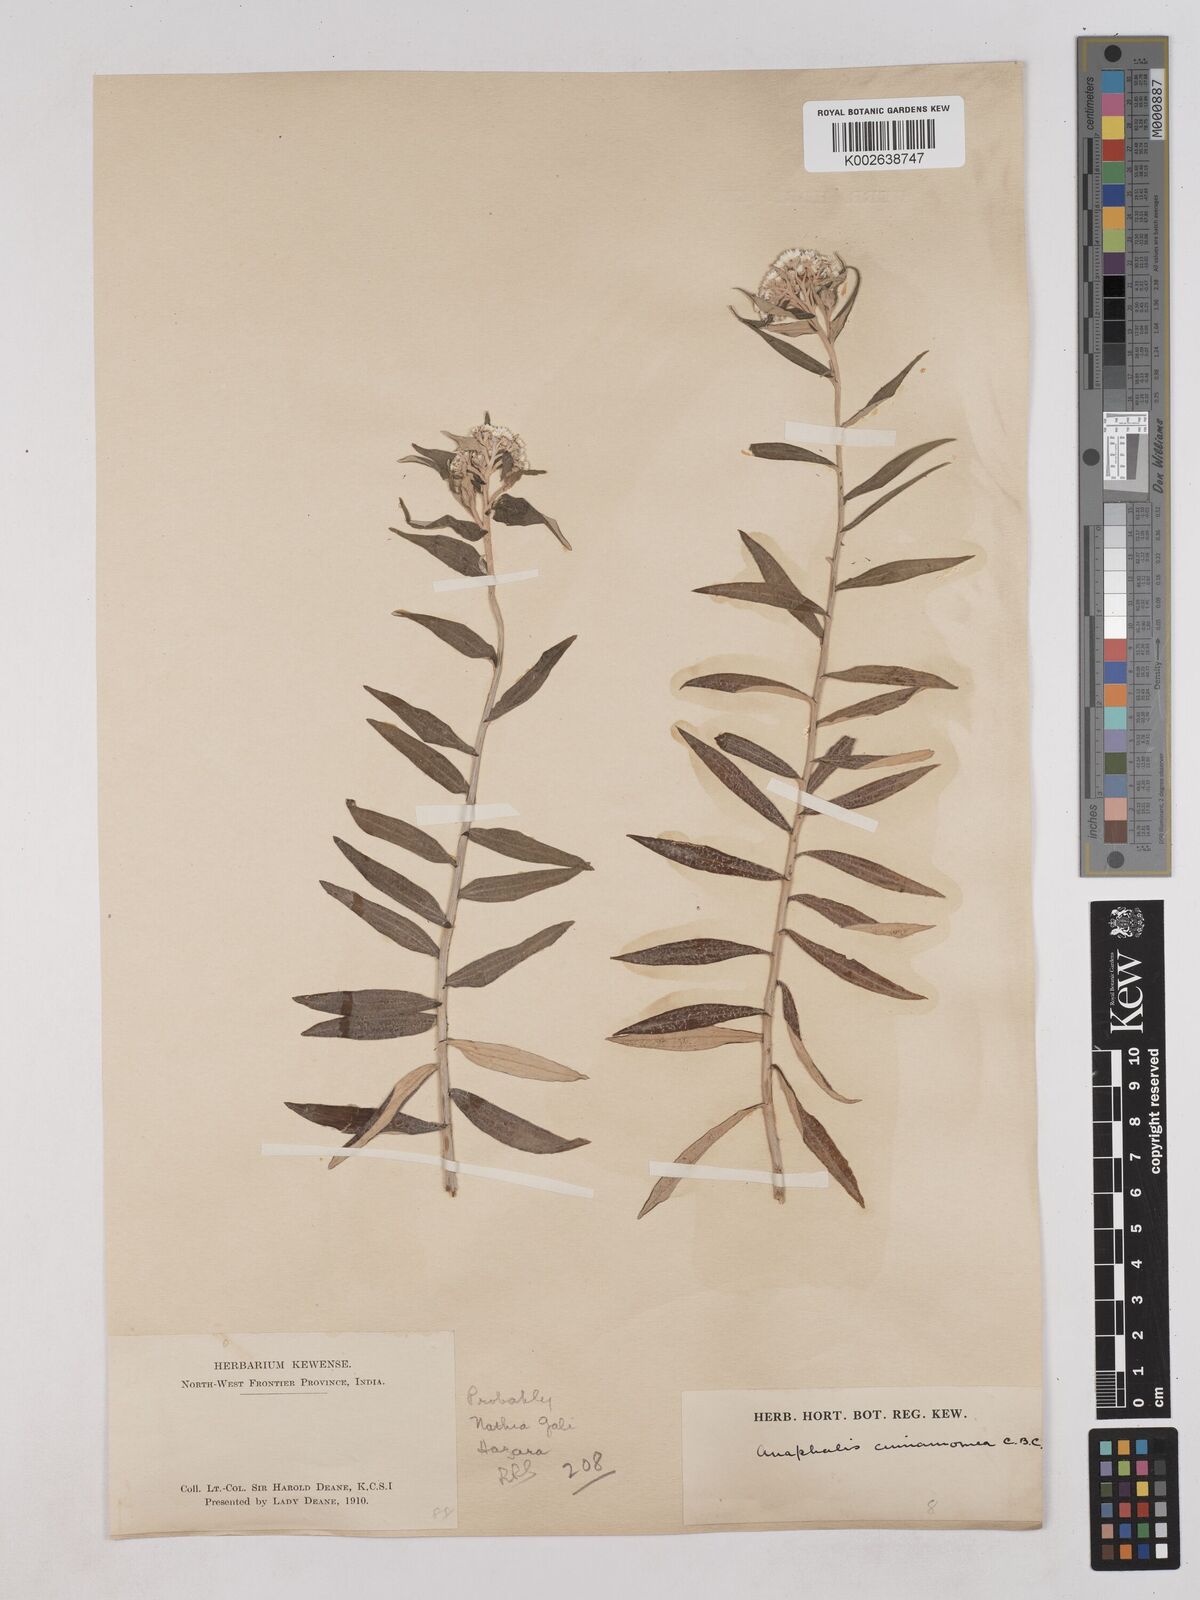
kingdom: Plantae
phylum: Tracheophyta
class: Magnoliopsida
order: Asterales
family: Asteraceae
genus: Anaphalis
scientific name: Anaphalis marcescens
